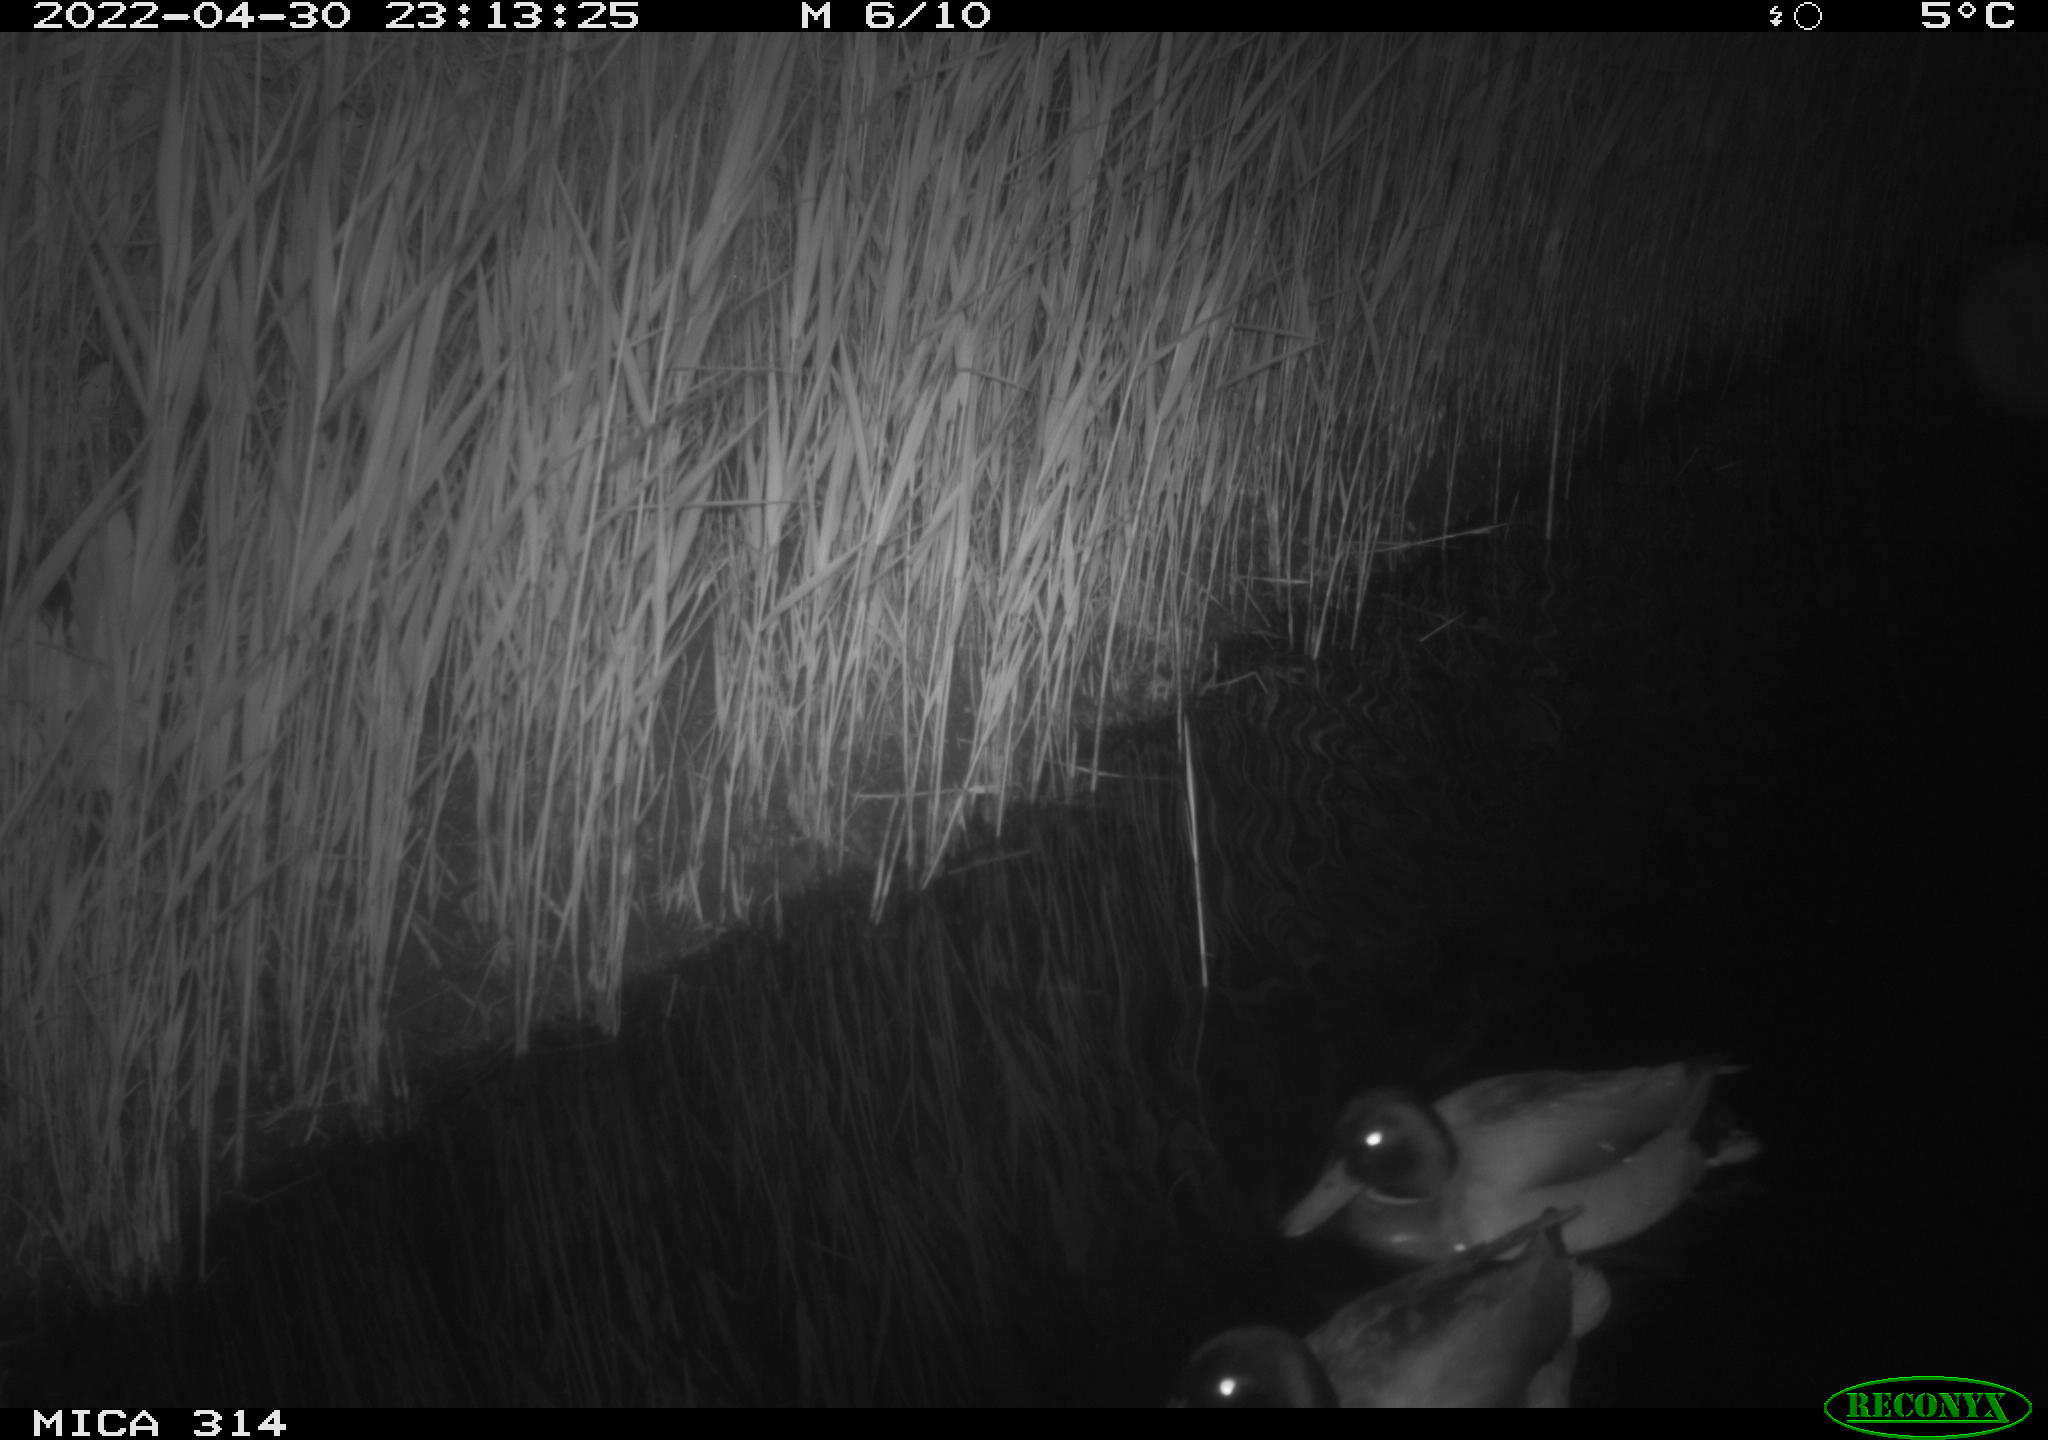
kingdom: Animalia
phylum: Chordata
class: Aves
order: Anseriformes
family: Anatidae
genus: Anas
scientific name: Anas platyrhynchos
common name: Mallard
